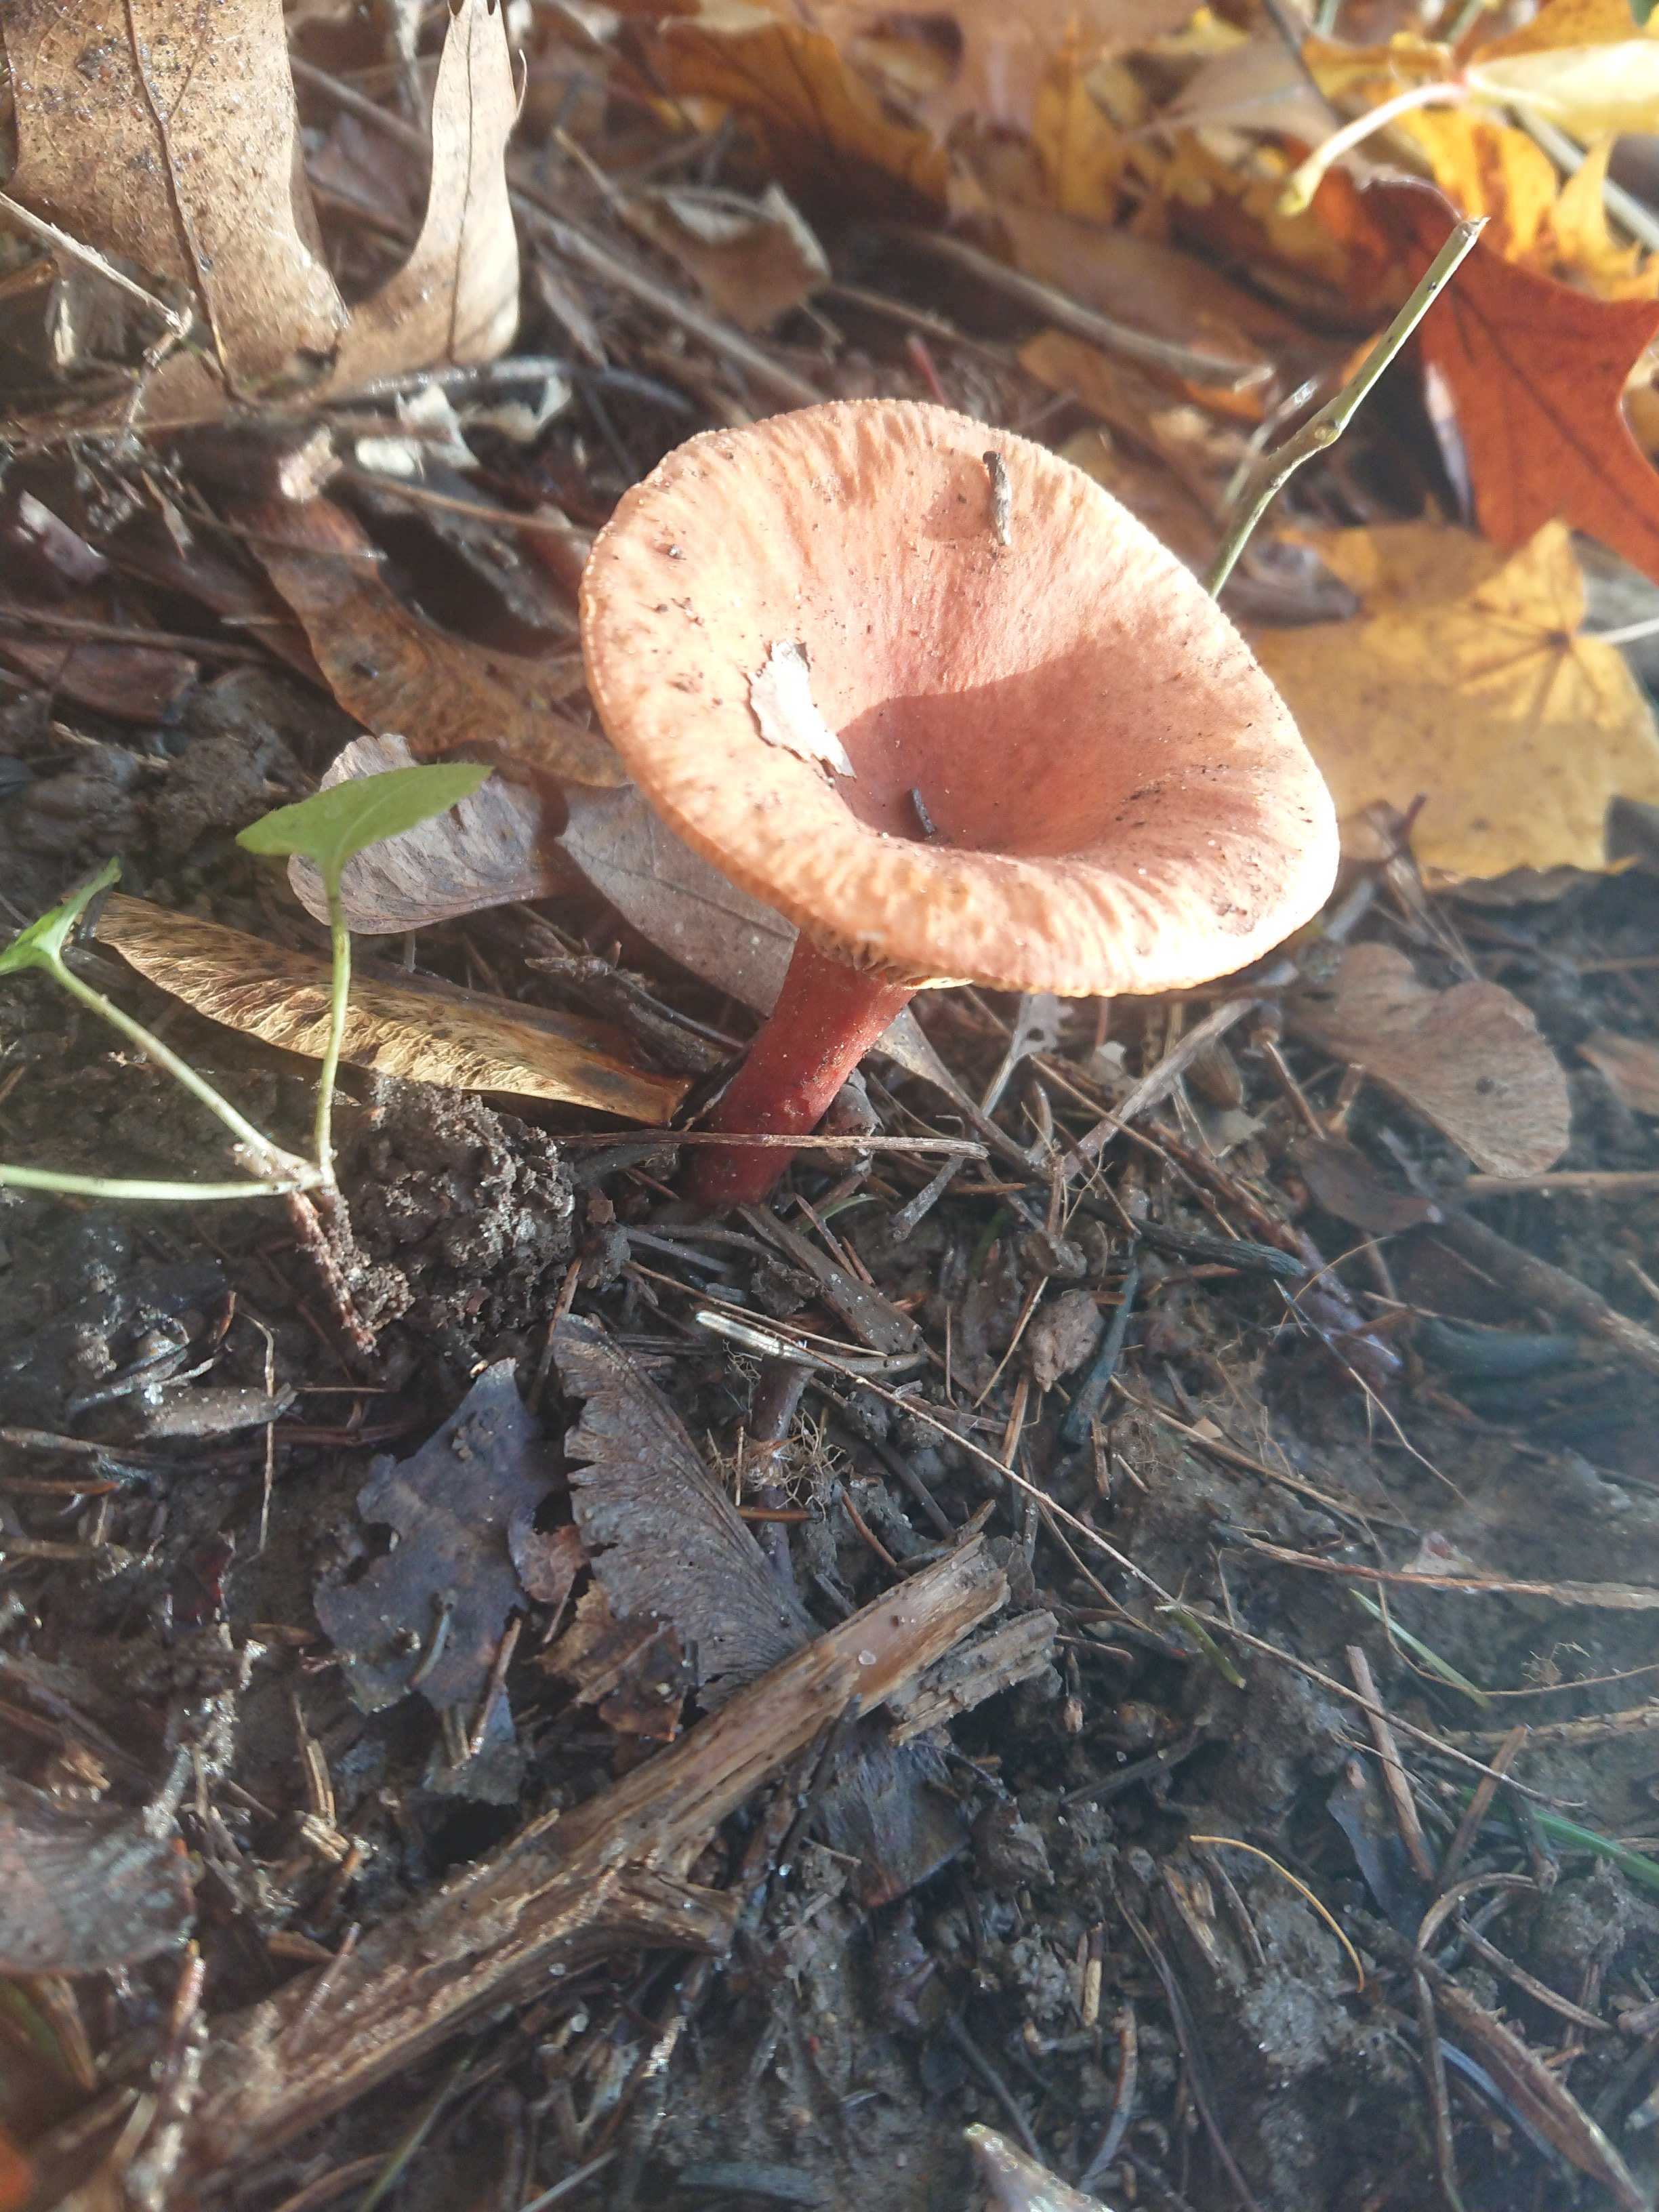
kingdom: Fungi
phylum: Basidiomycota
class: Agaricomycetes
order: Russulales
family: Russulaceae
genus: Lactarius
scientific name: Lactarius tabidus
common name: rynket mælkehat
